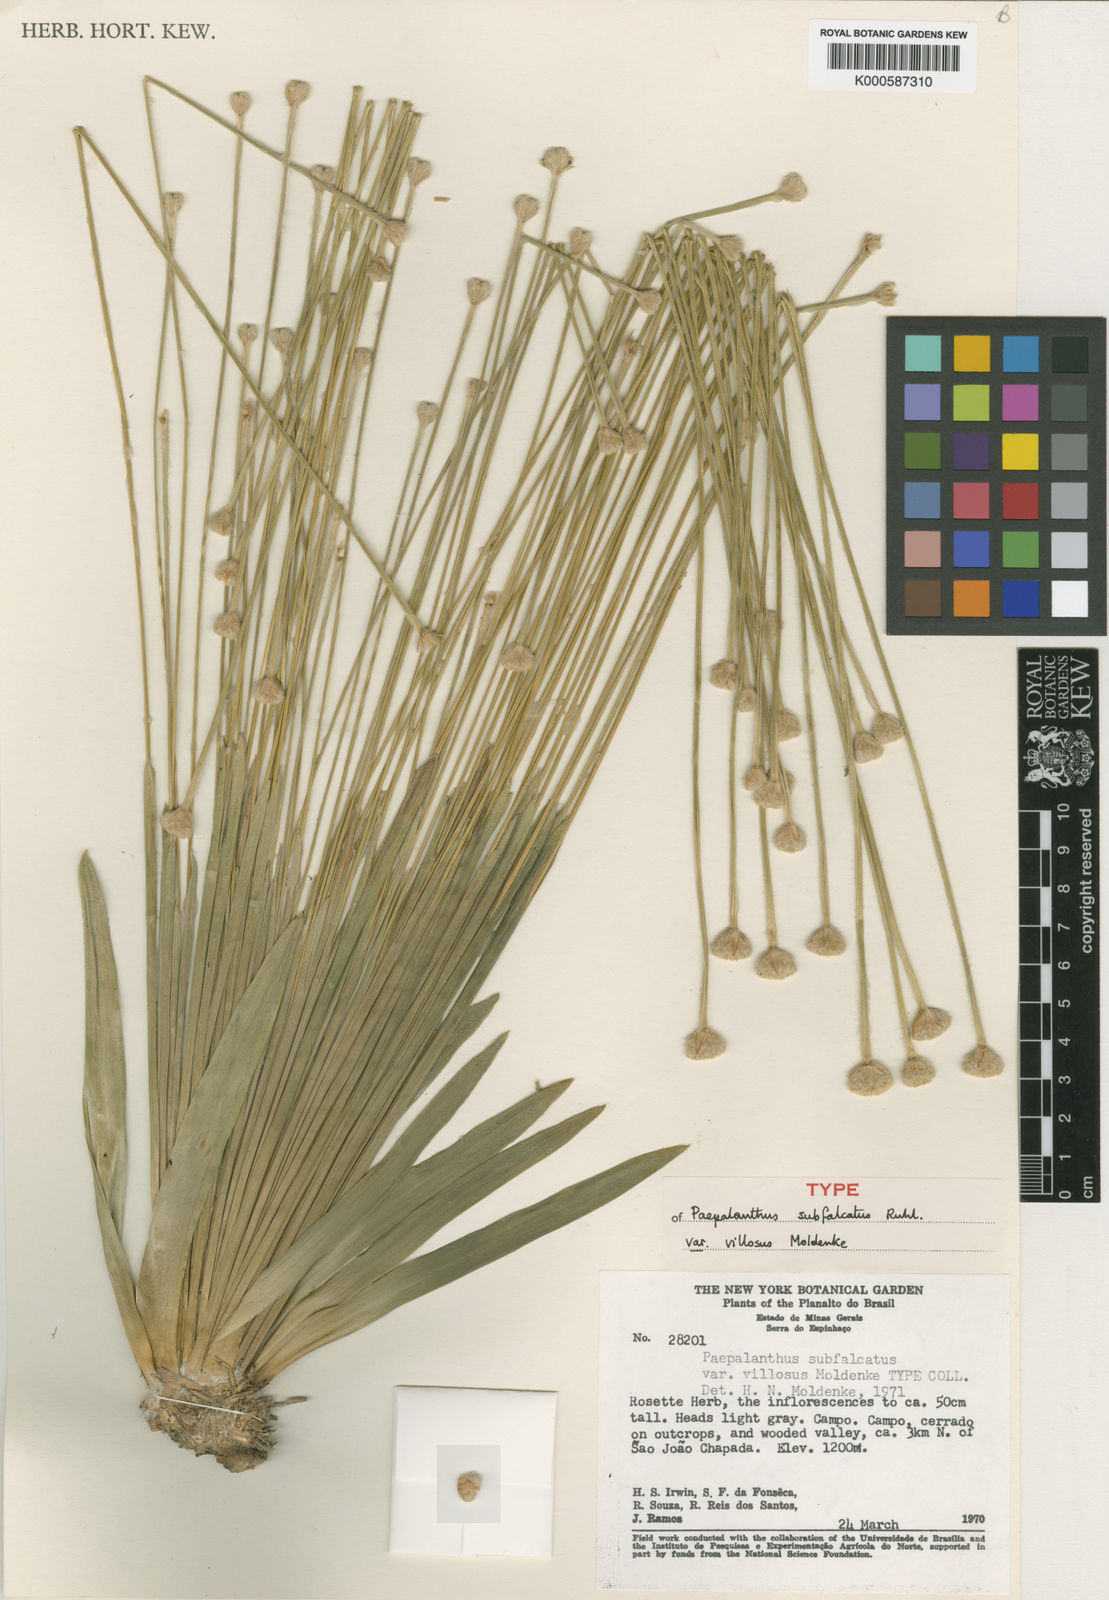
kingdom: Plantae
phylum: Tracheophyta
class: Liliopsida
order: Poales
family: Eriocaulaceae
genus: Paepalanthus
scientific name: Paepalanthus subfalcatus
